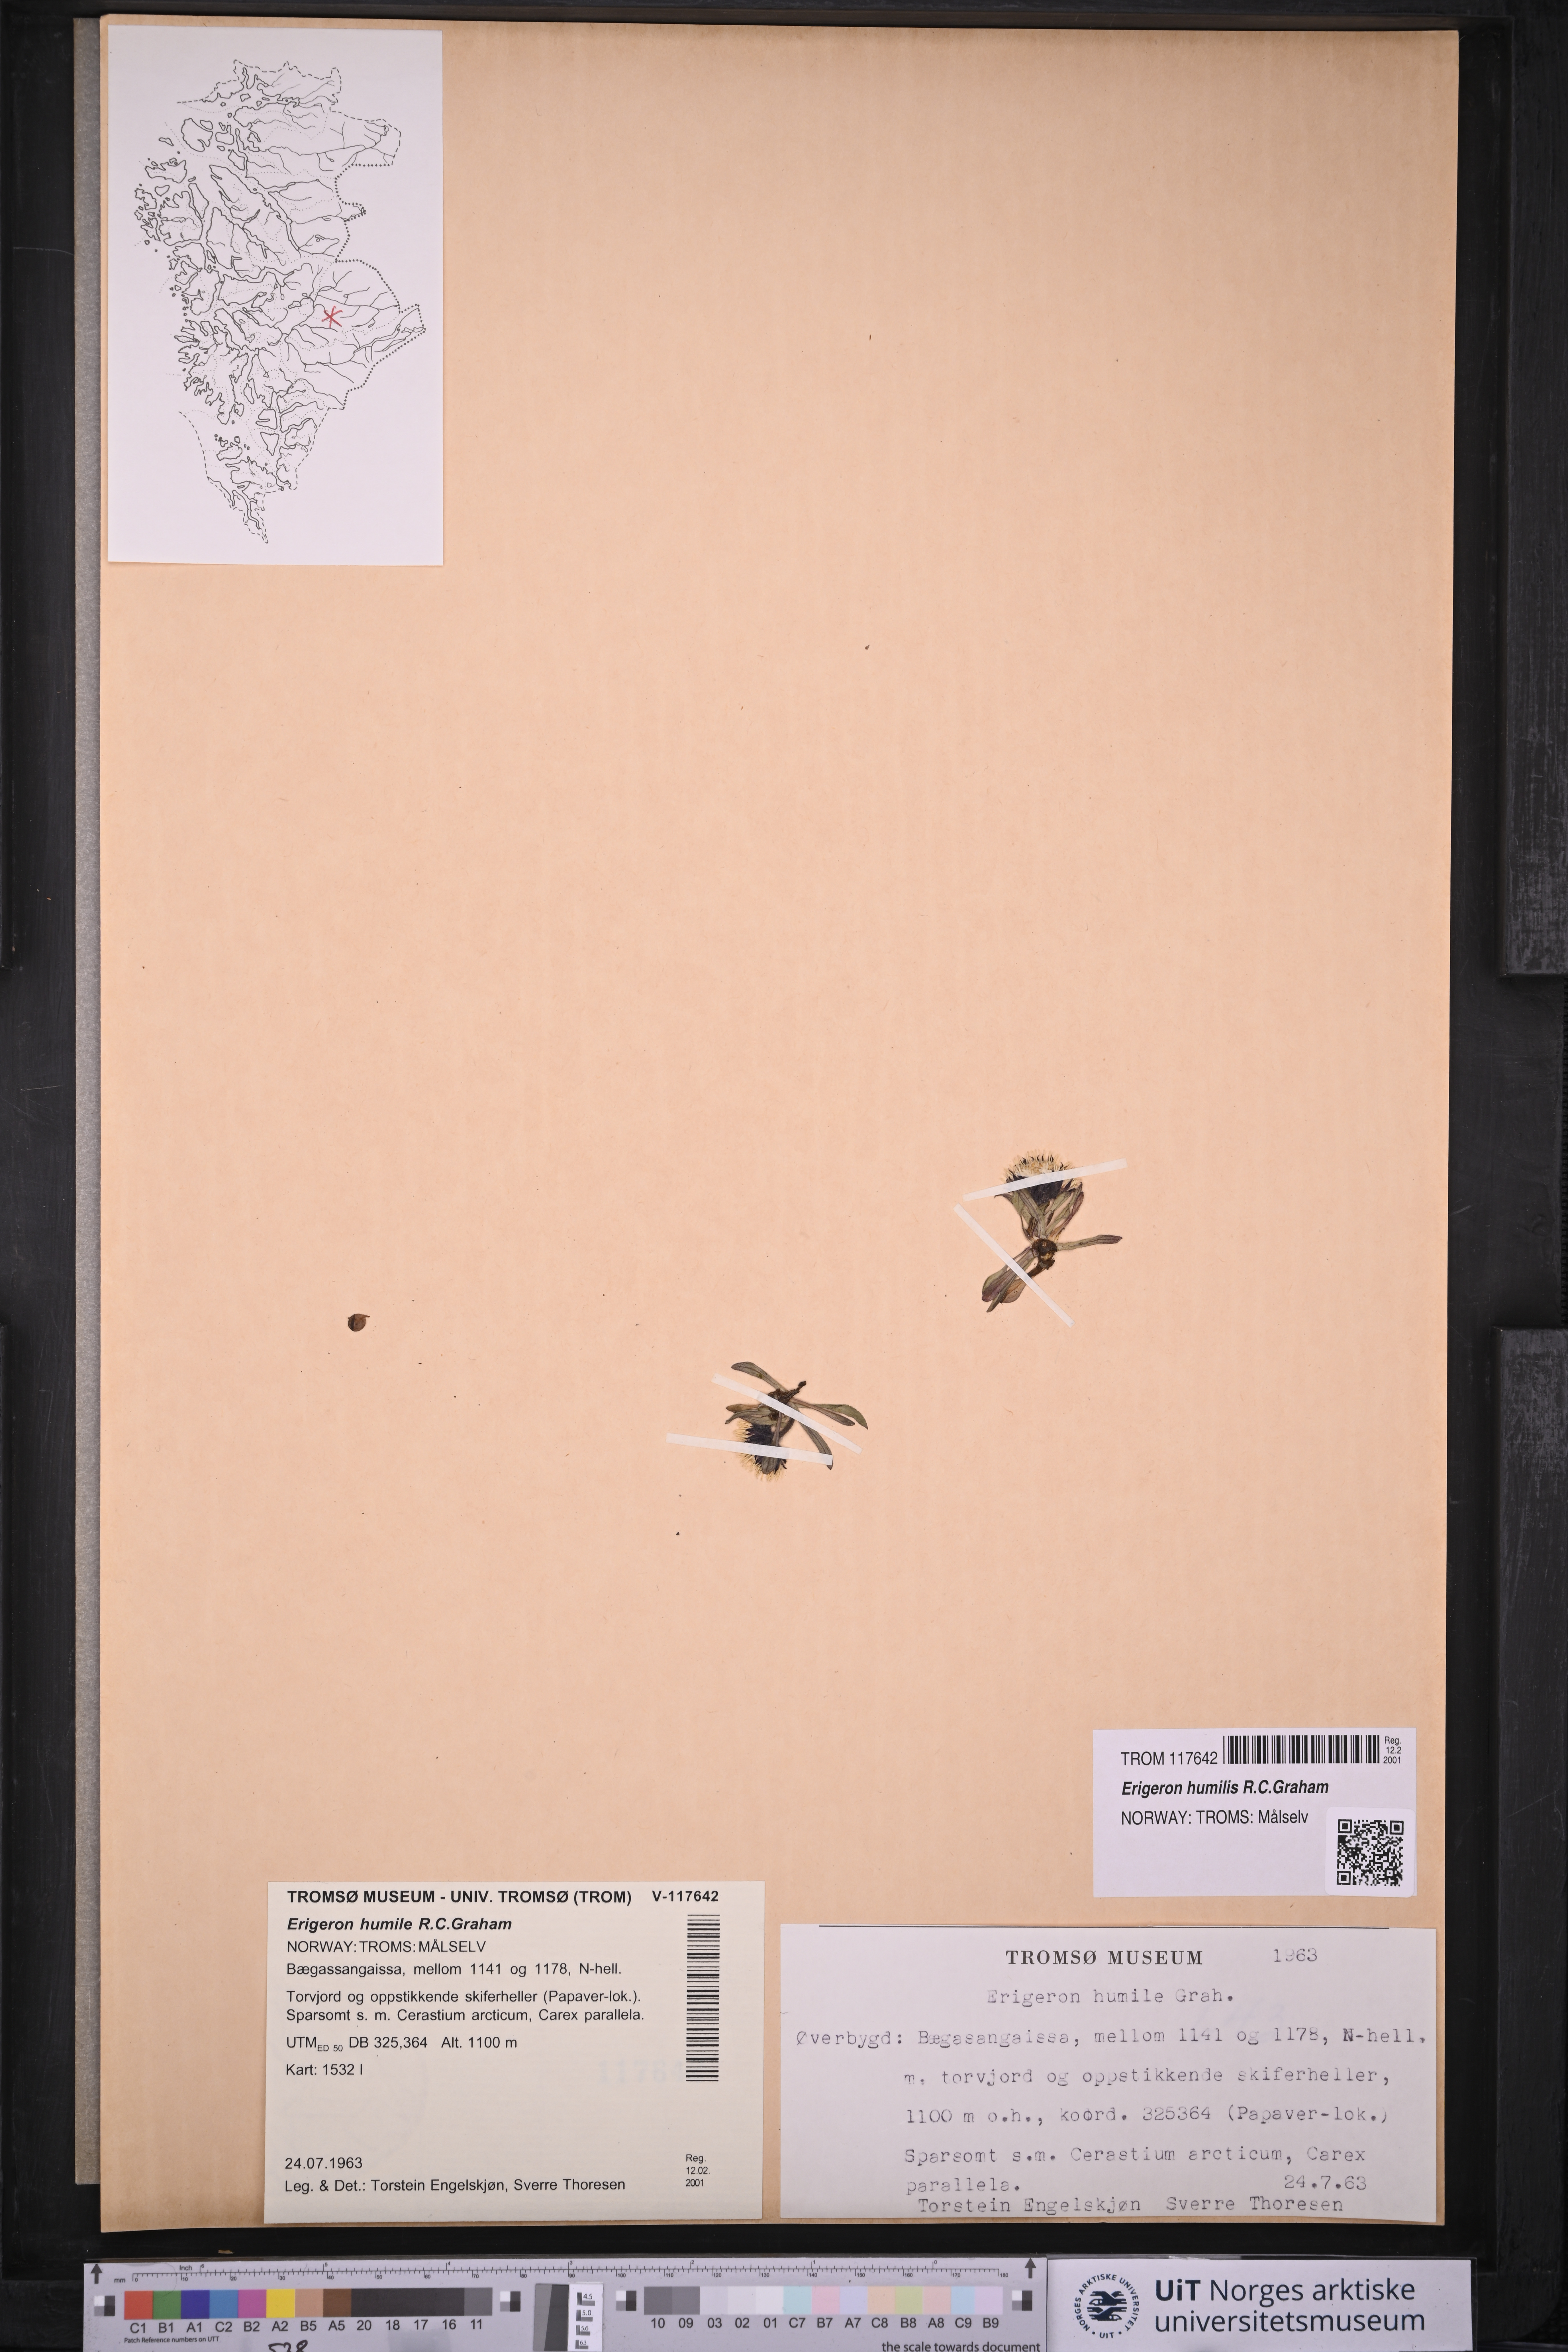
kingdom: Plantae
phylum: Tracheophyta
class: Magnoliopsida
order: Asterales
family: Asteraceae
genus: Erigeron
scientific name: Erigeron humilis
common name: Arctic-alpine fleabane
